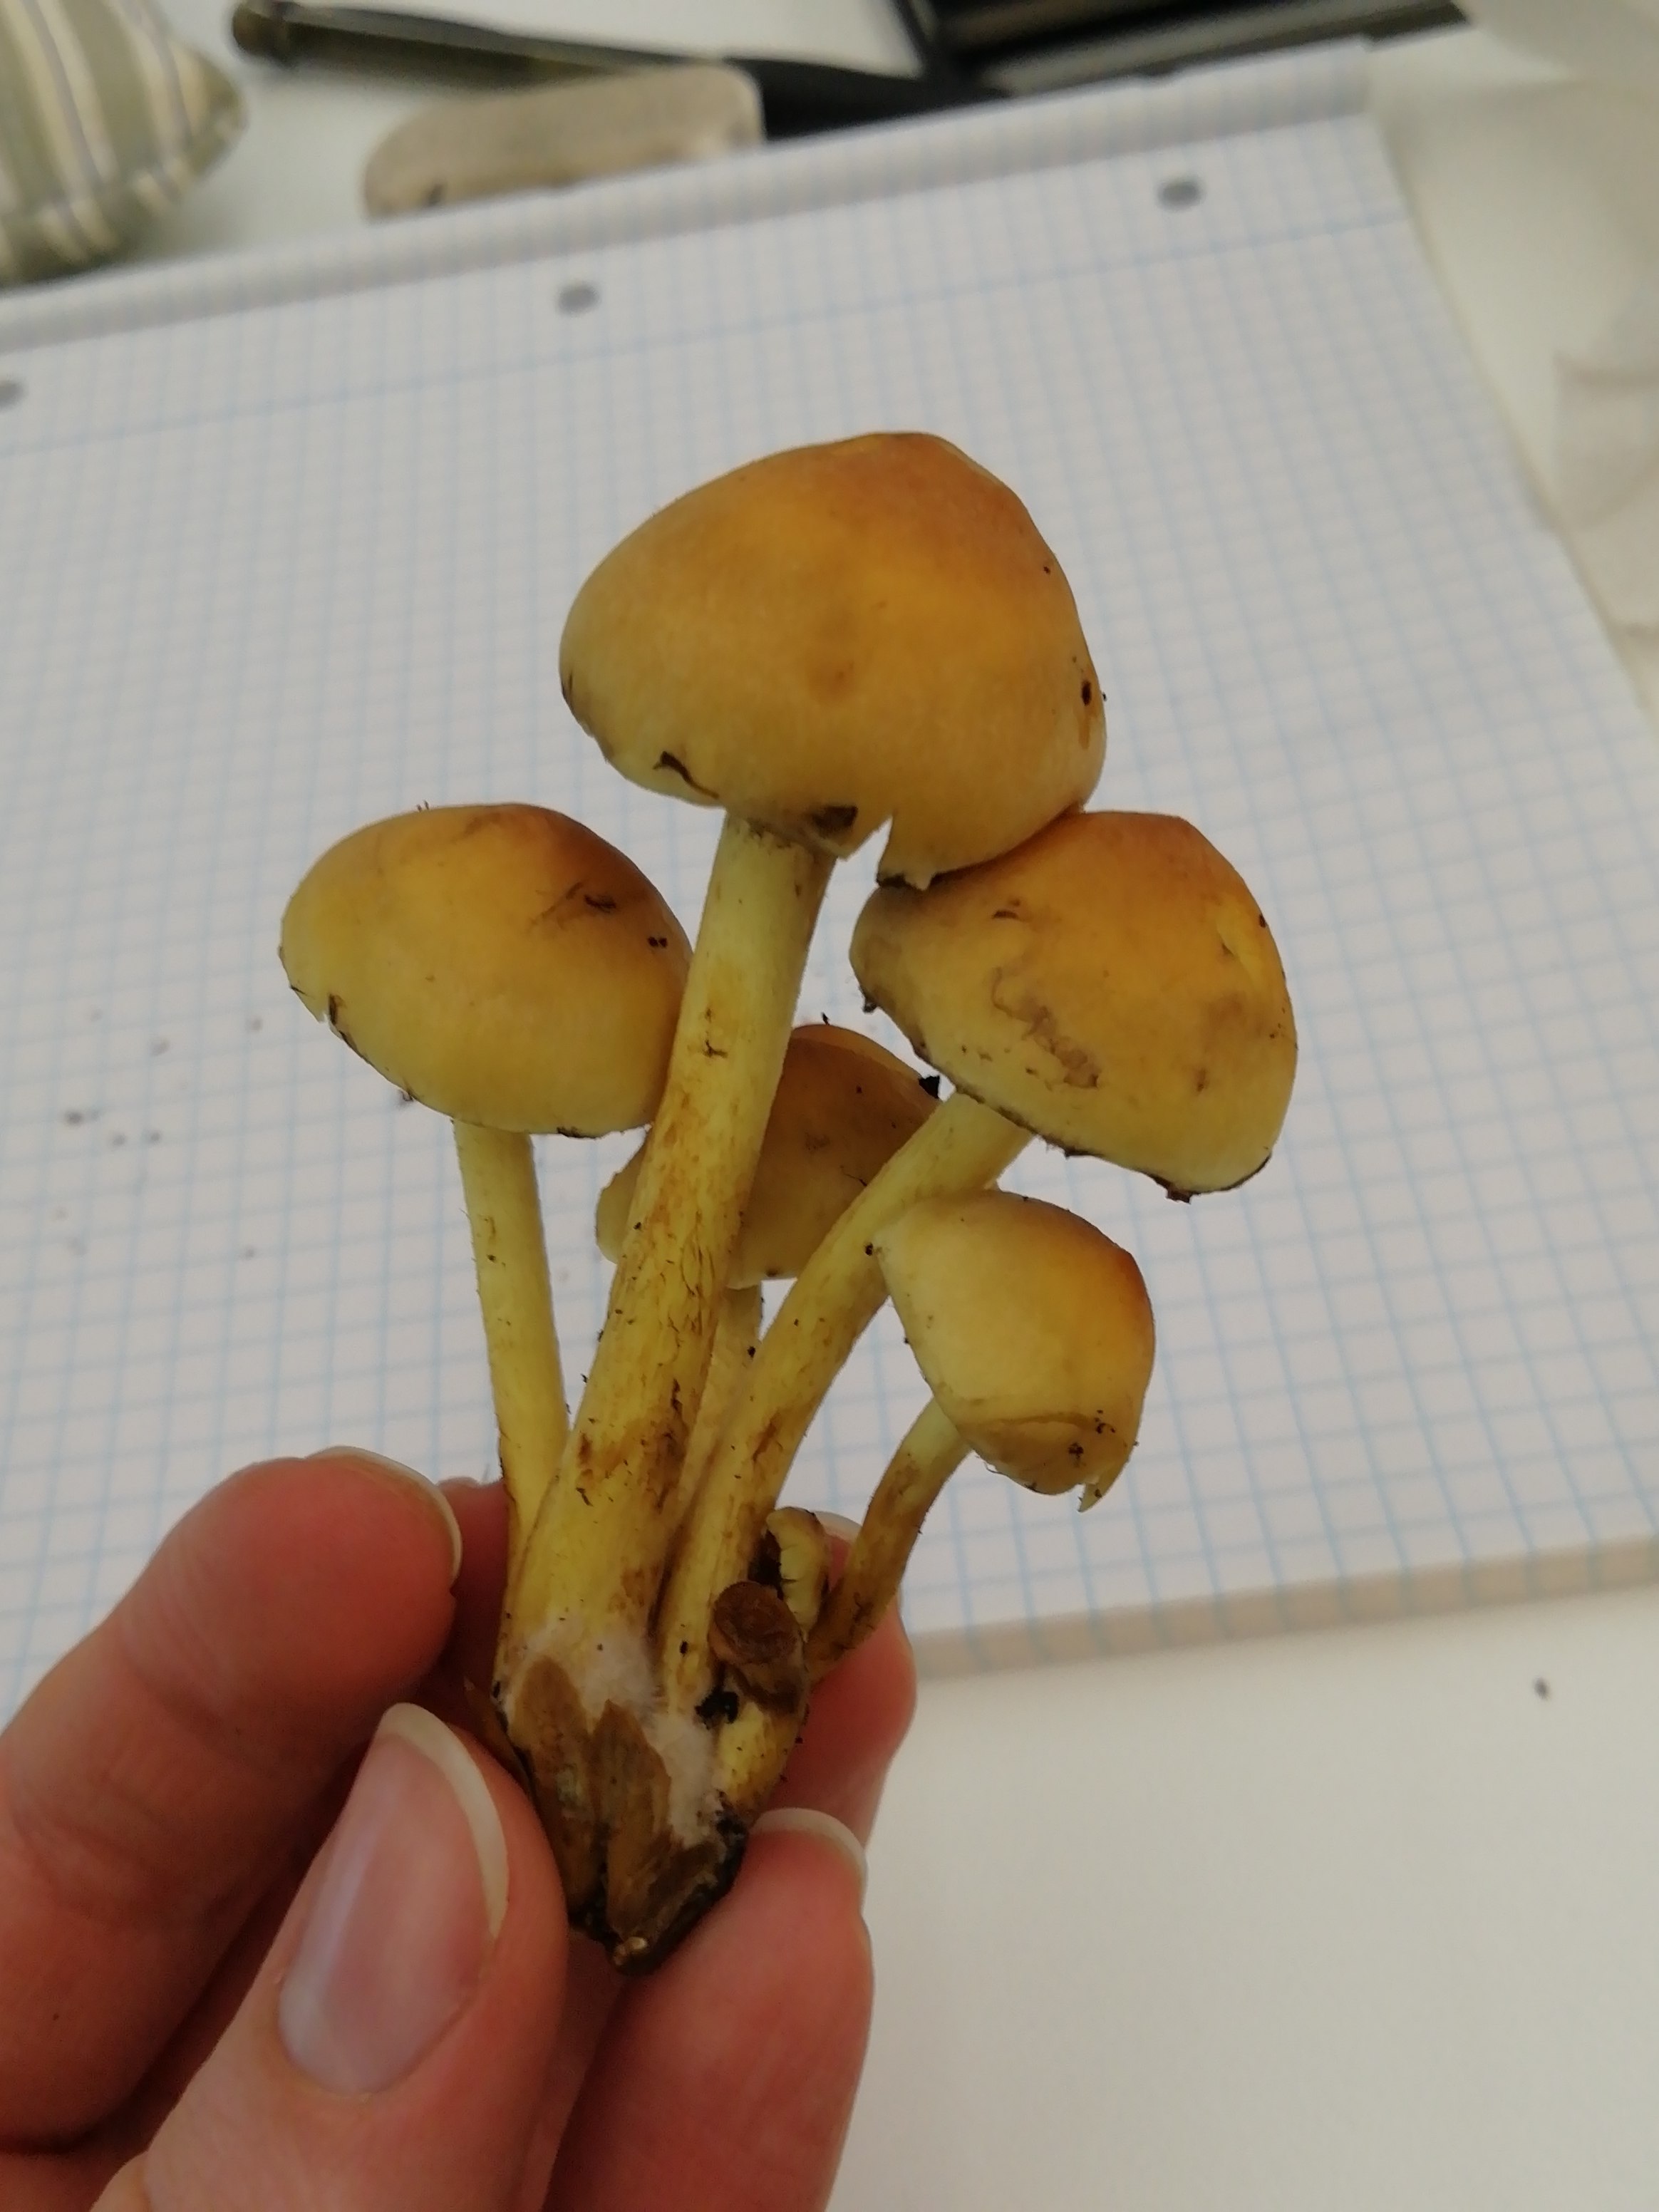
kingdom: Fungi
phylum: Basidiomycota
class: Agaricomycetes
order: Agaricales
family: Strophariaceae
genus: Hypholoma
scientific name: Hypholoma fasciculare
